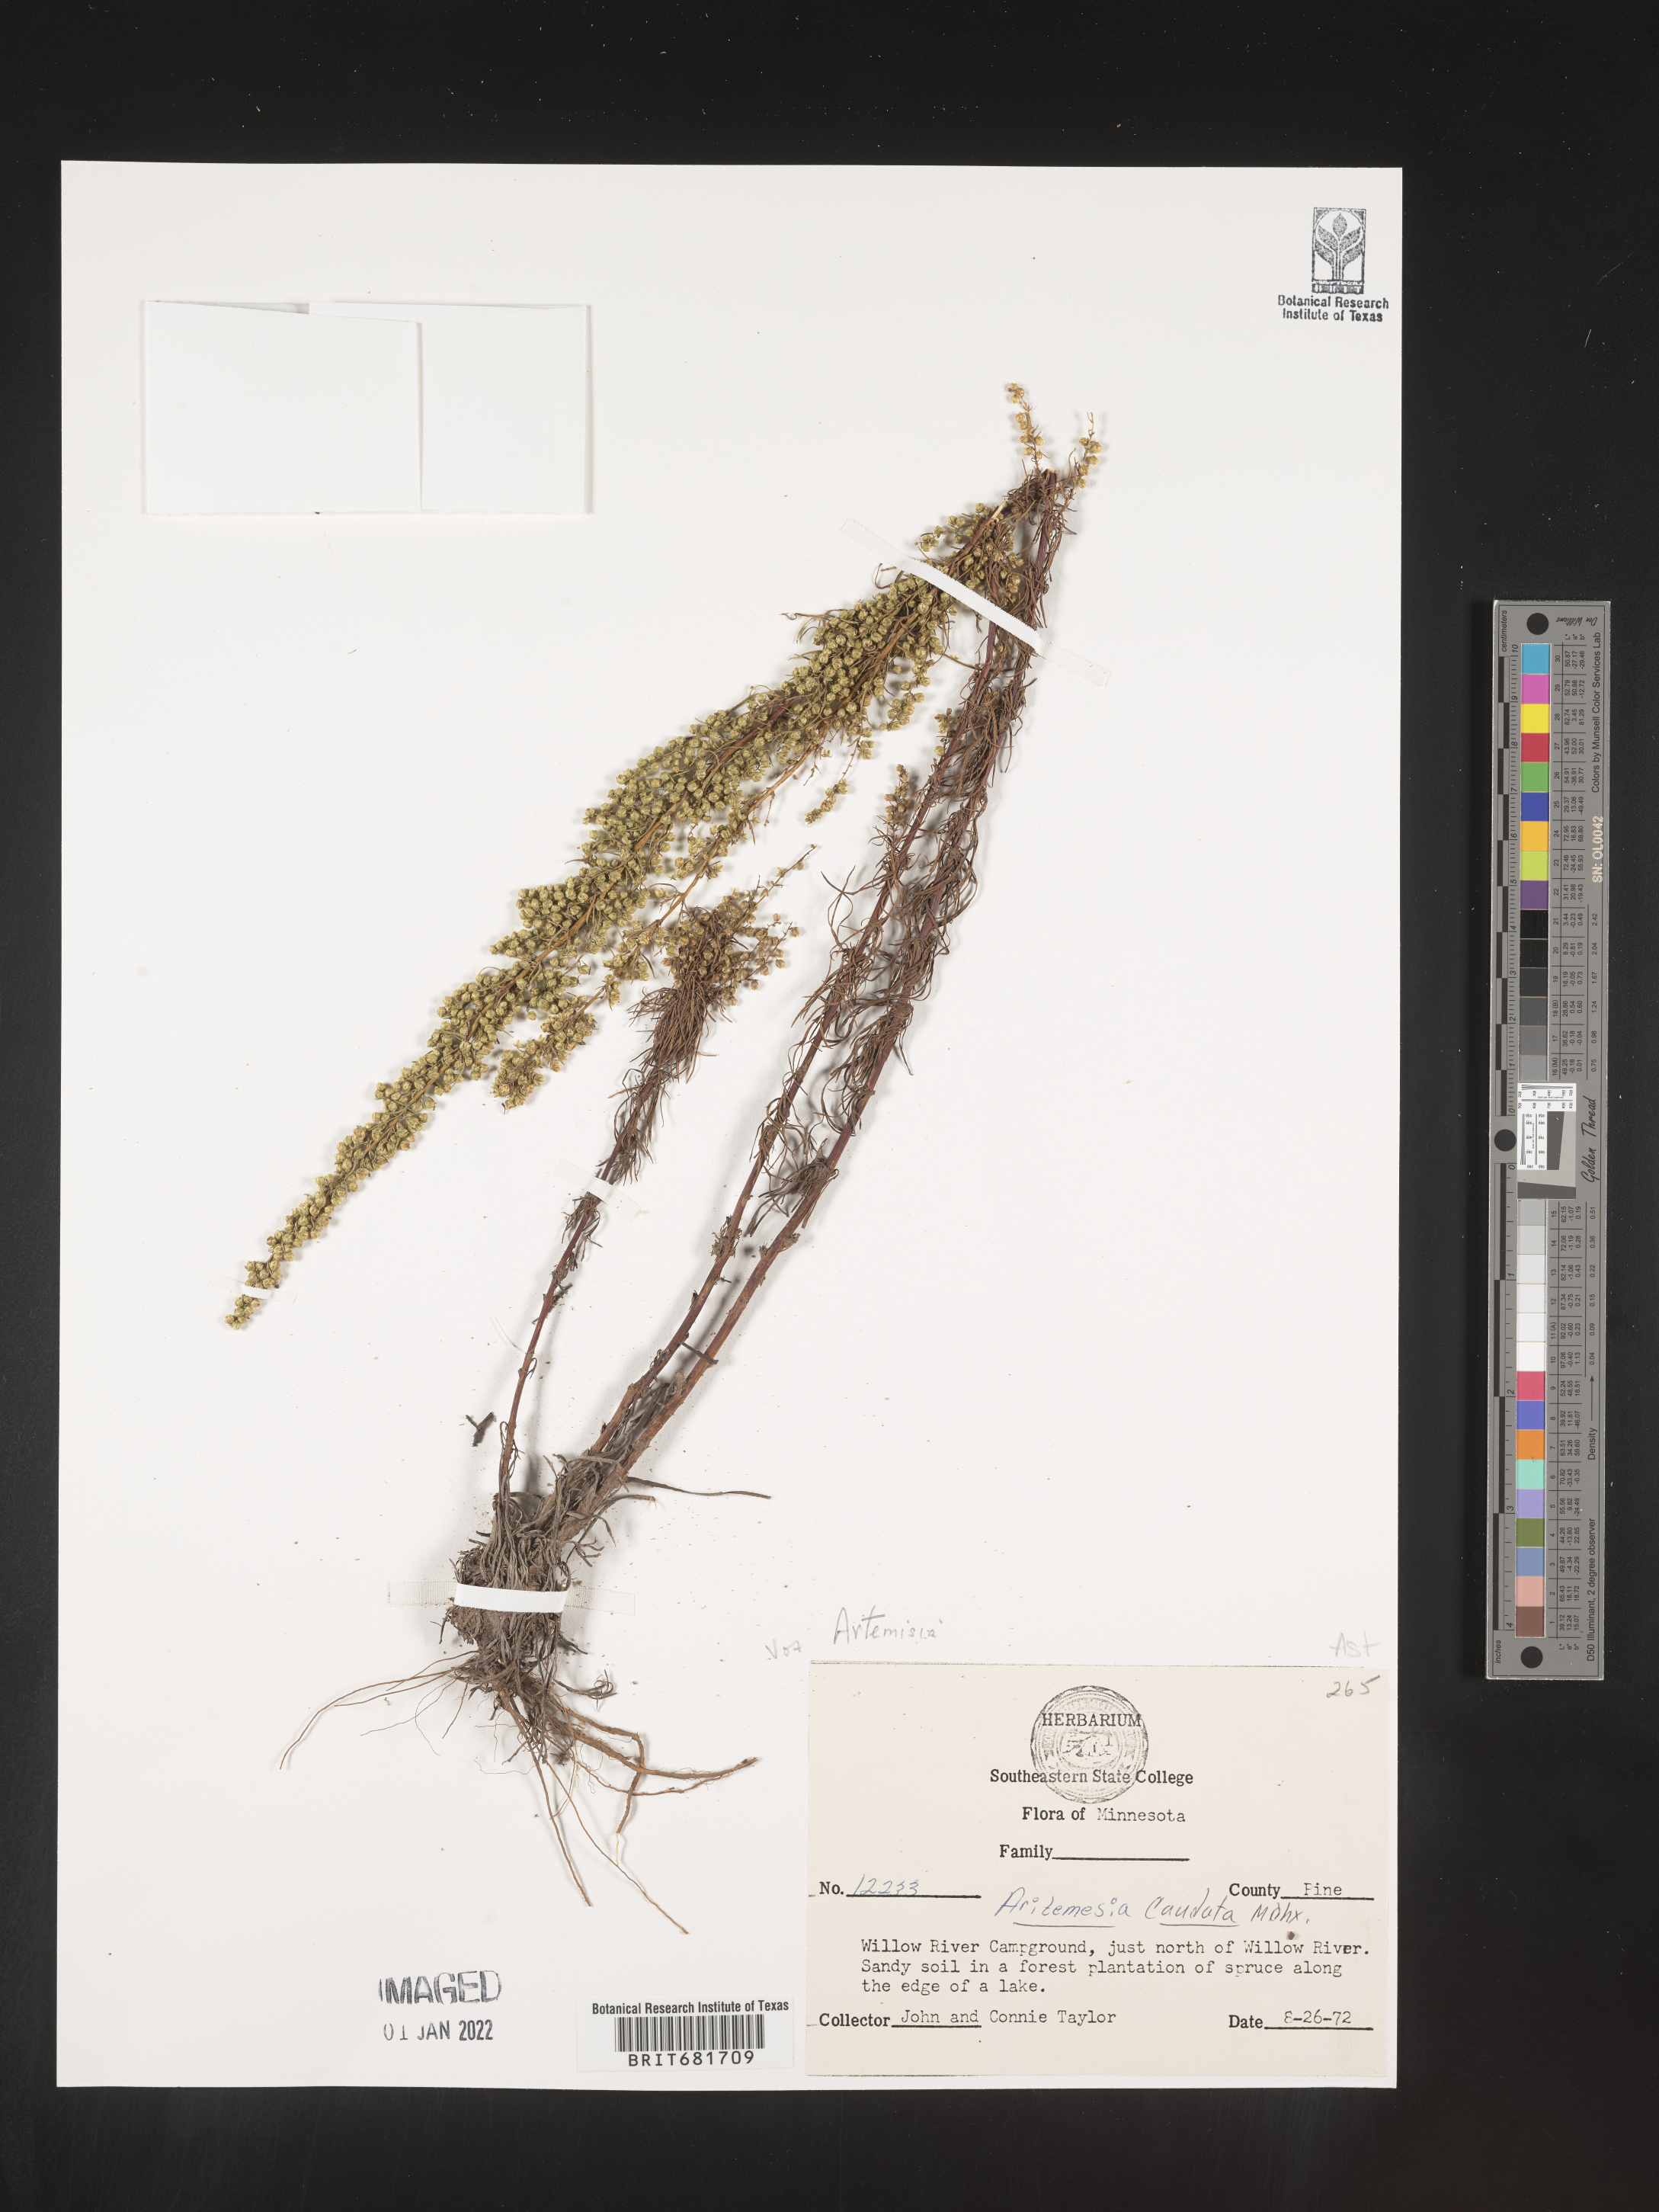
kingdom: Plantae
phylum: Tracheophyta
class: Magnoliopsida
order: Asterales
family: Asteraceae
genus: Artemisia
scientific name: Artemisia campestris
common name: Field wormwood
